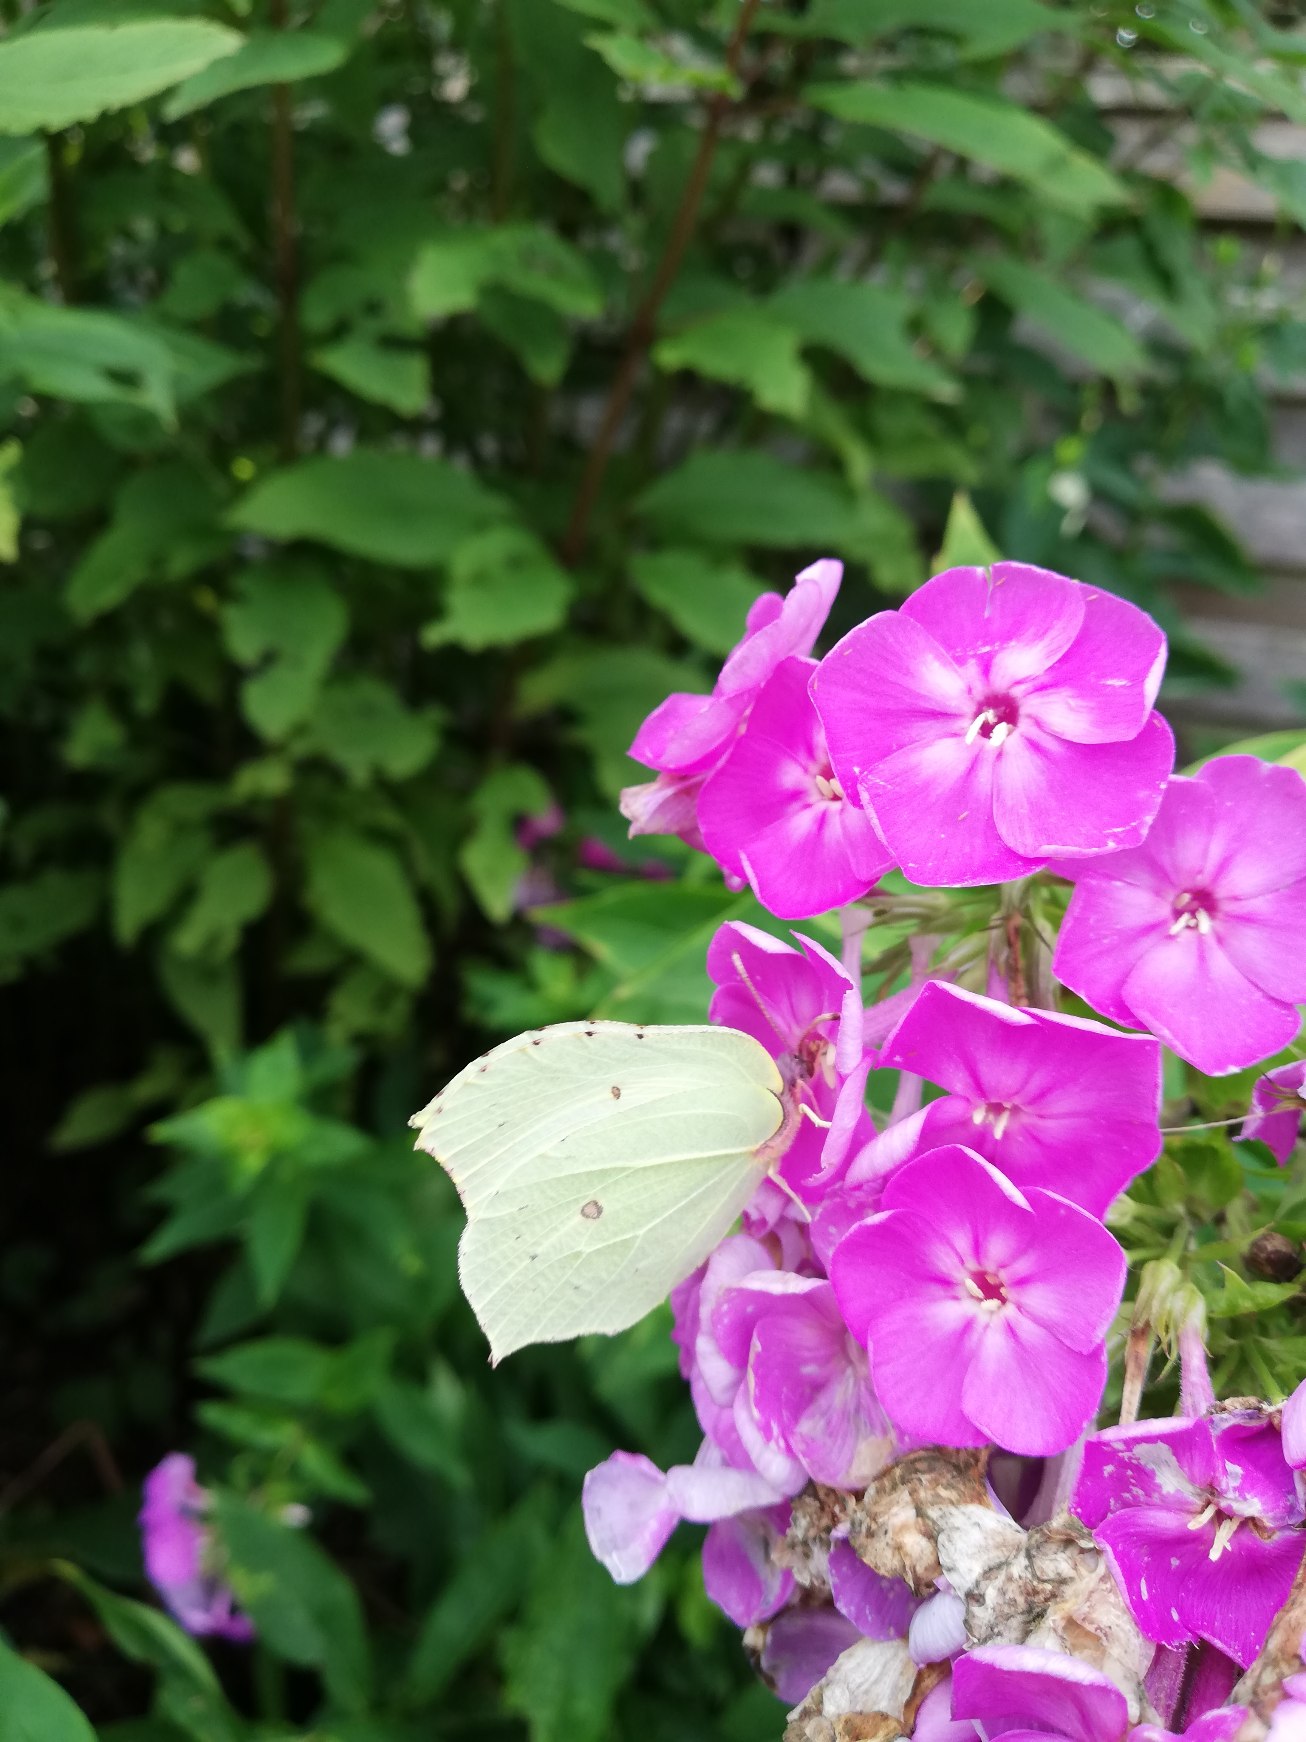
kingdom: Animalia
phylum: Arthropoda
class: Insecta
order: Lepidoptera
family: Pieridae
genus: Gonepteryx
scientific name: Gonepteryx rhamni
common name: Citronsommerfugl
